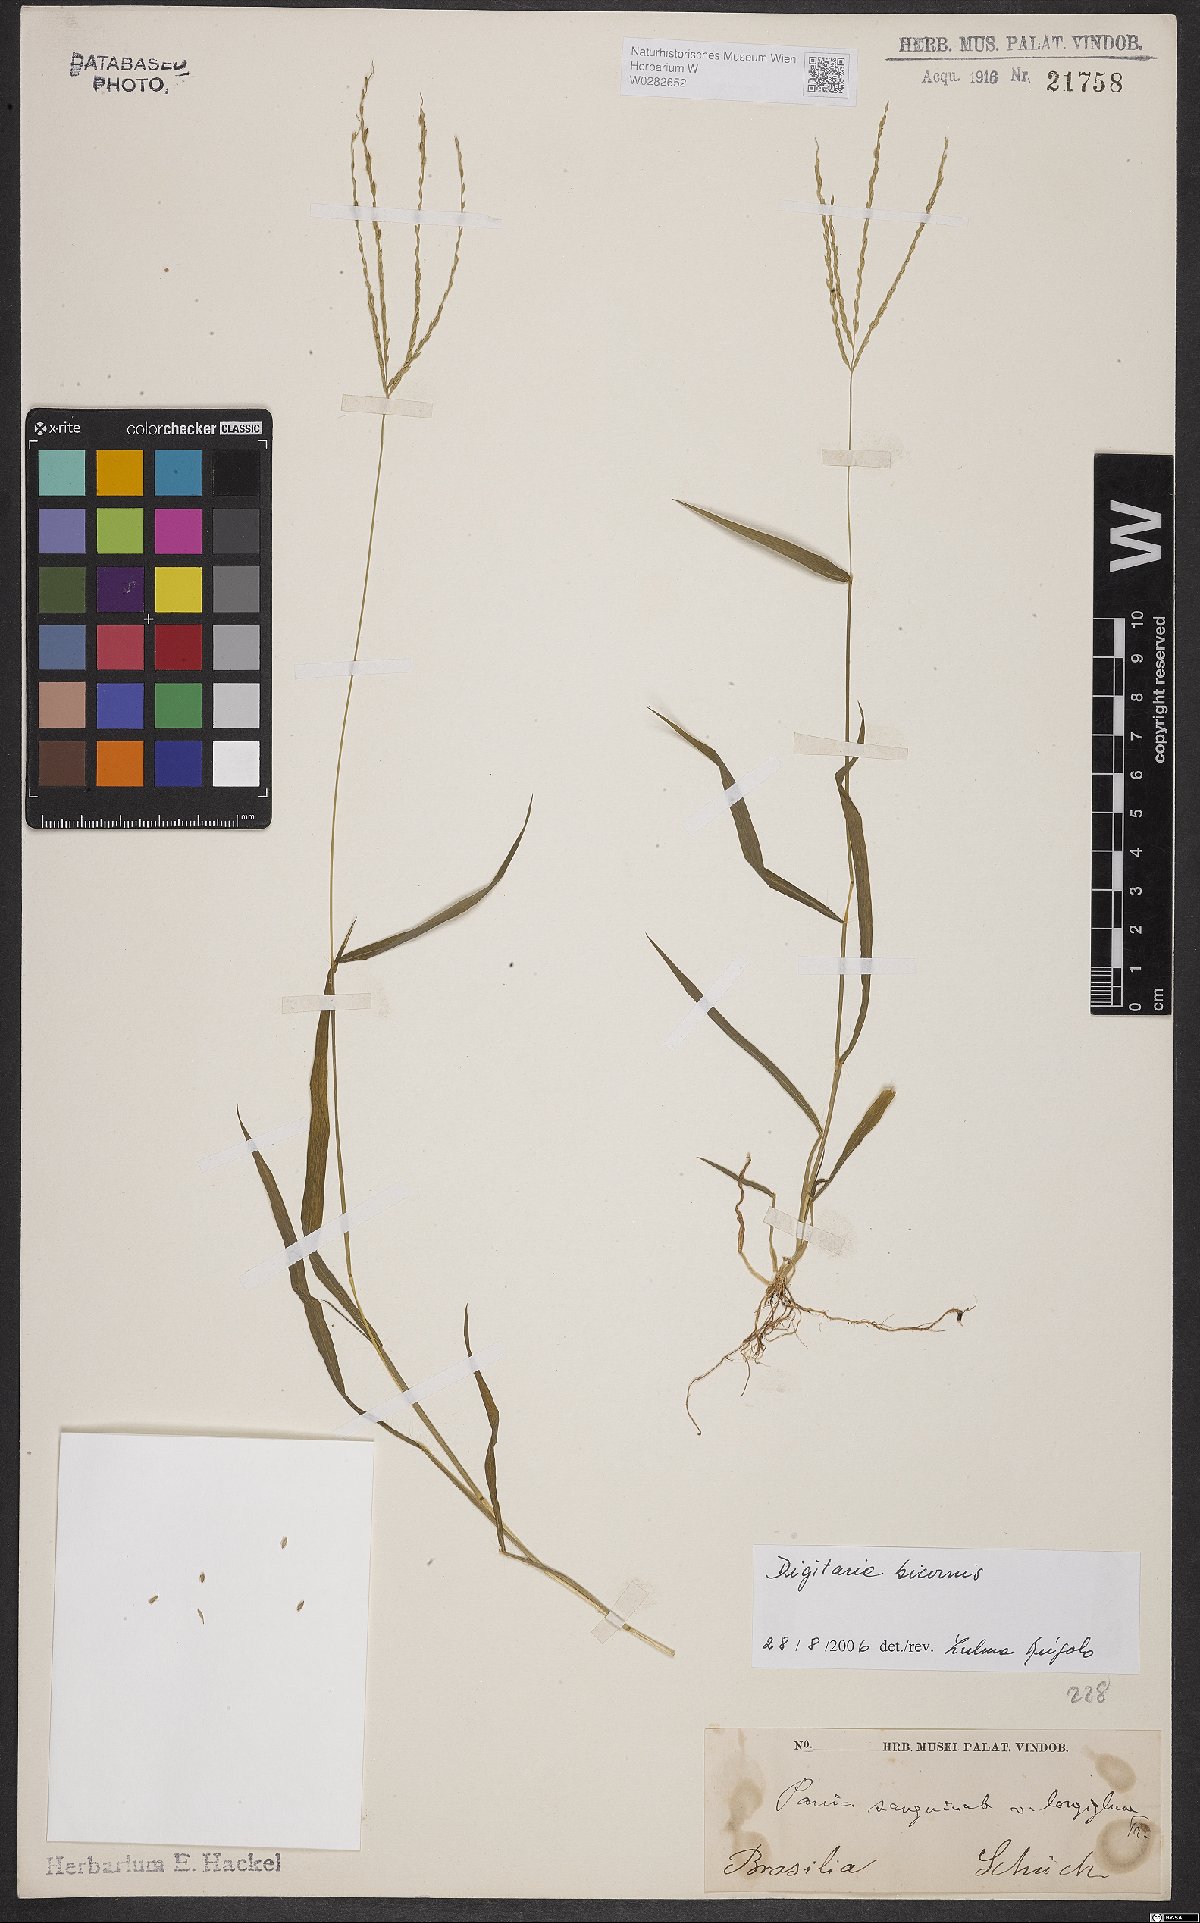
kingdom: Plantae
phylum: Tracheophyta
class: Liliopsida
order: Poales
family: Poaceae
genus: Digitaria
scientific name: Digitaria bicornis
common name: Asian crabgrass
